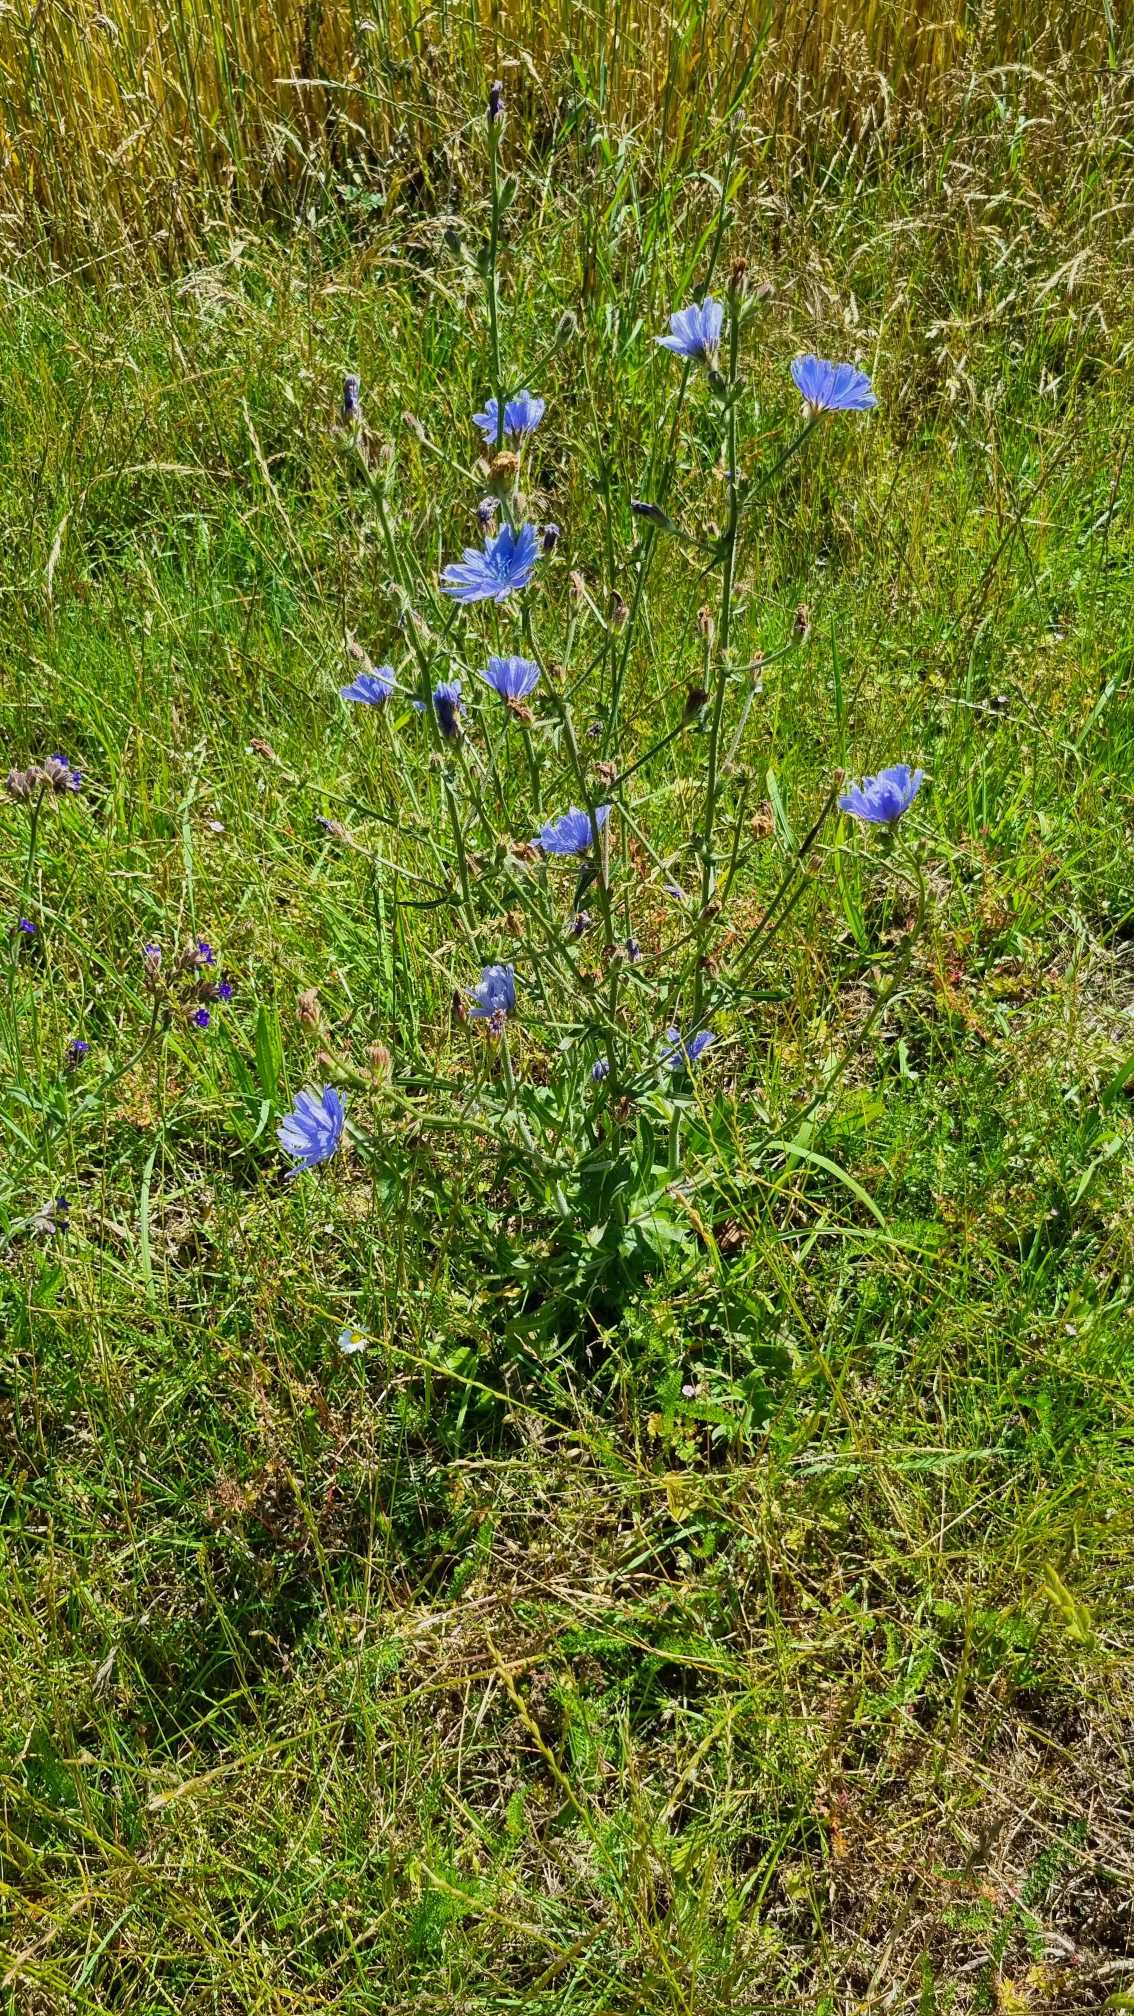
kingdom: Plantae
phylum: Tracheophyta
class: Magnoliopsida
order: Asterales
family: Asteraceae
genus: Cichorium
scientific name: Cichorium intybus
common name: Cikorie
